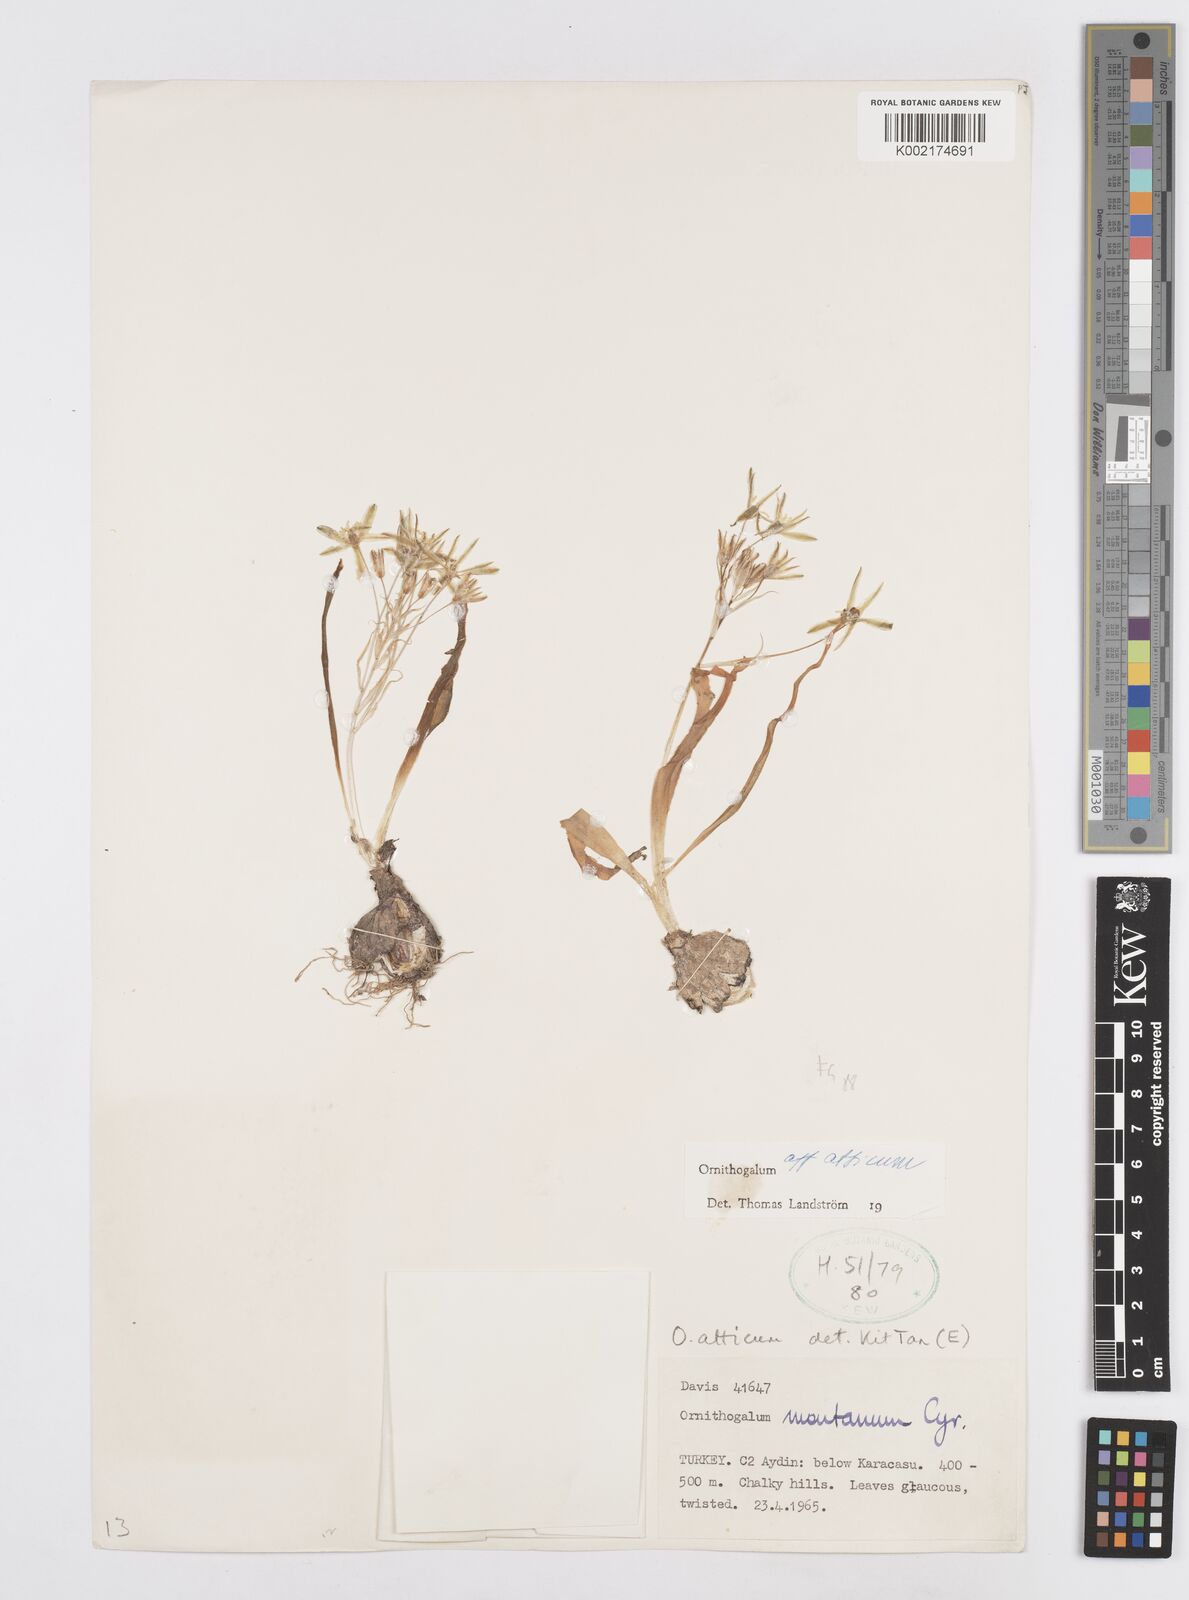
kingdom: Plantae
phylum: Tracheophyta
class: Liliopsida
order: Asparagales
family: Asparagaceae
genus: Ornithogalum
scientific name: Ornithogalum atticum
